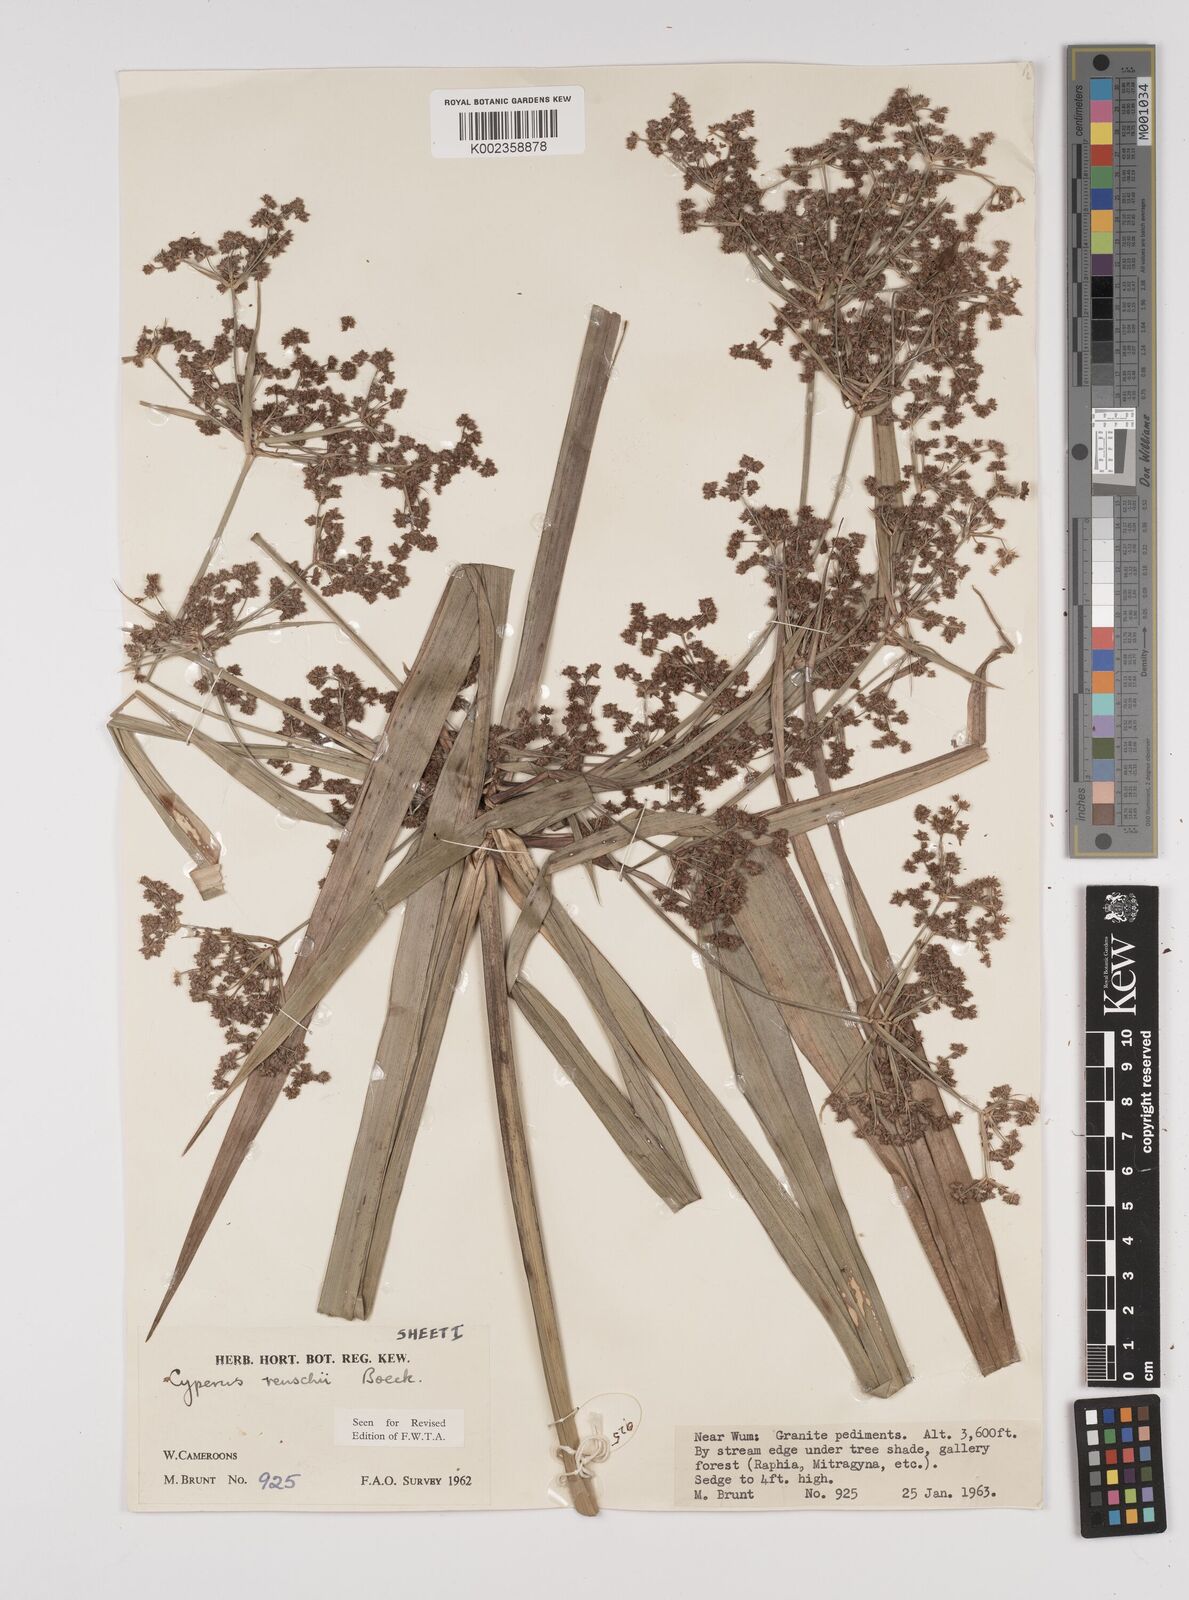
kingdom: Plantae
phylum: Tracheophyta
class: Liliopsida
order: Poales
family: Cyperaceae
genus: Cyperus
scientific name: Cyperus renschii
